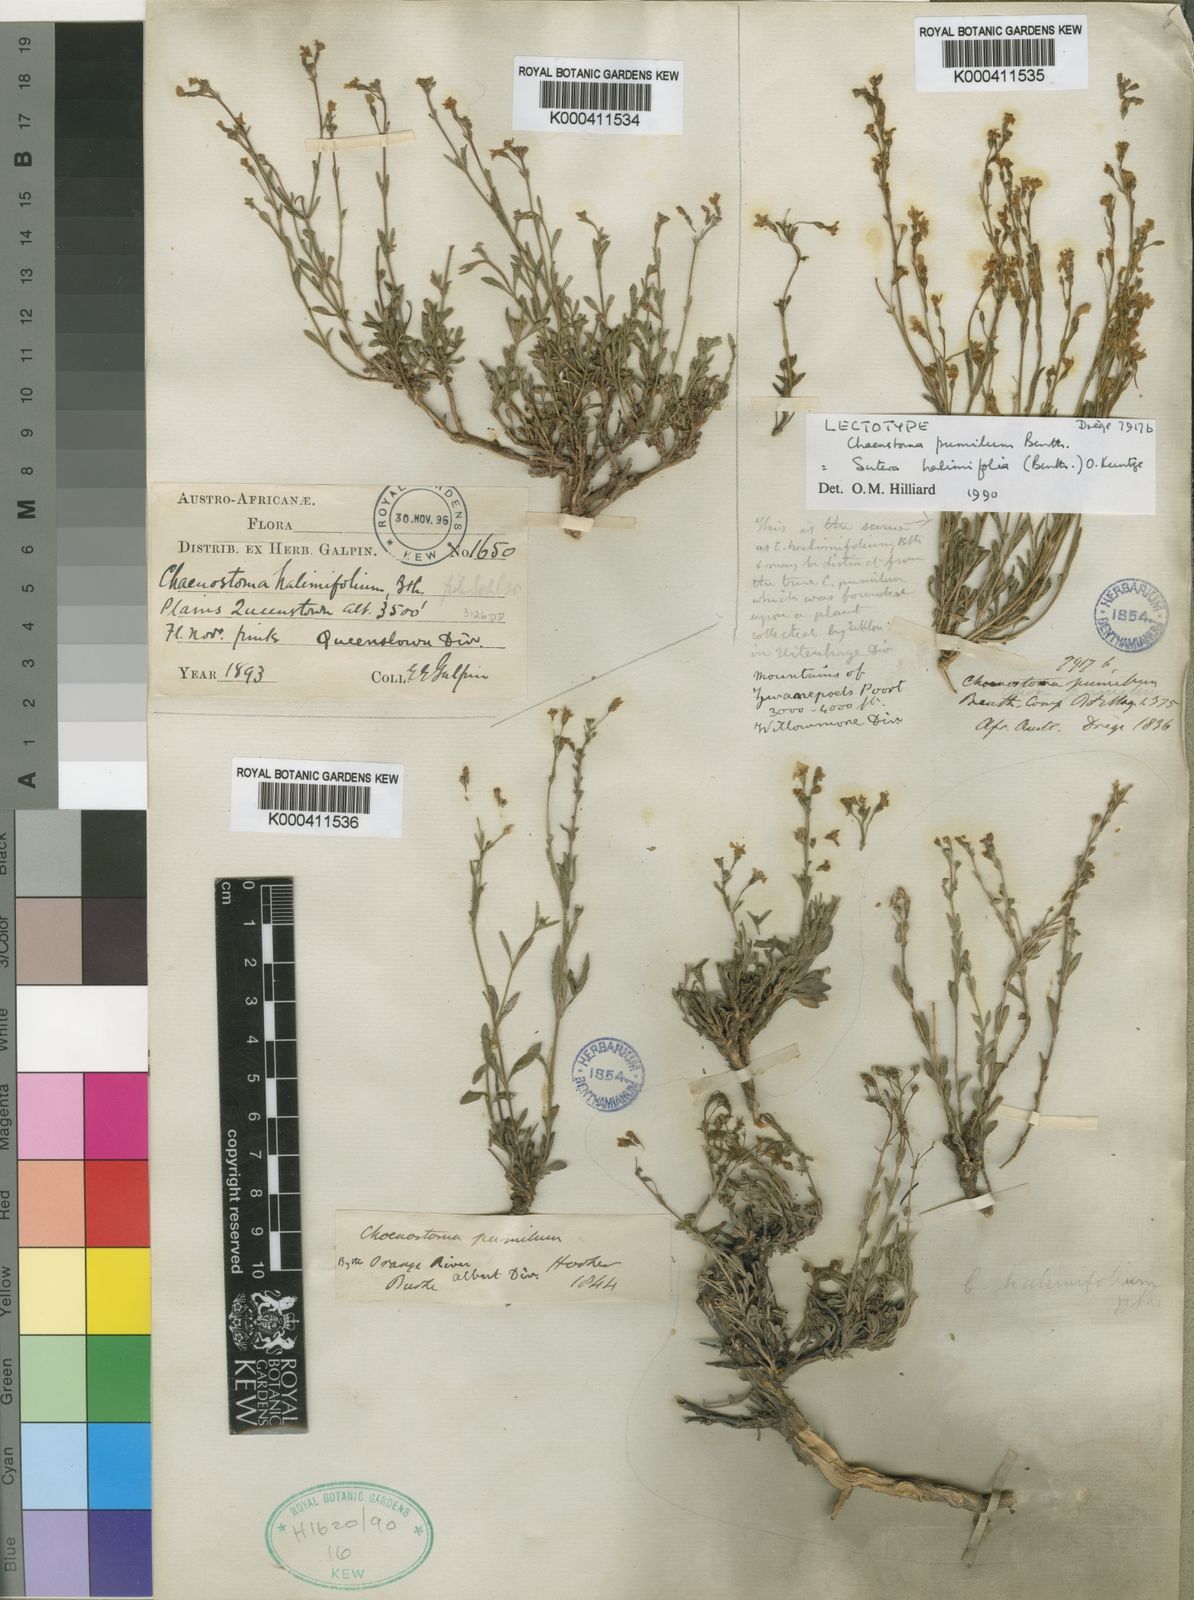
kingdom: Plantae
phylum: Tracheophyta
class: Magnoliopsida
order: Lamiales
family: Scrophulariaceae
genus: Chaenostoma
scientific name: Chaenostoma halimifolium
